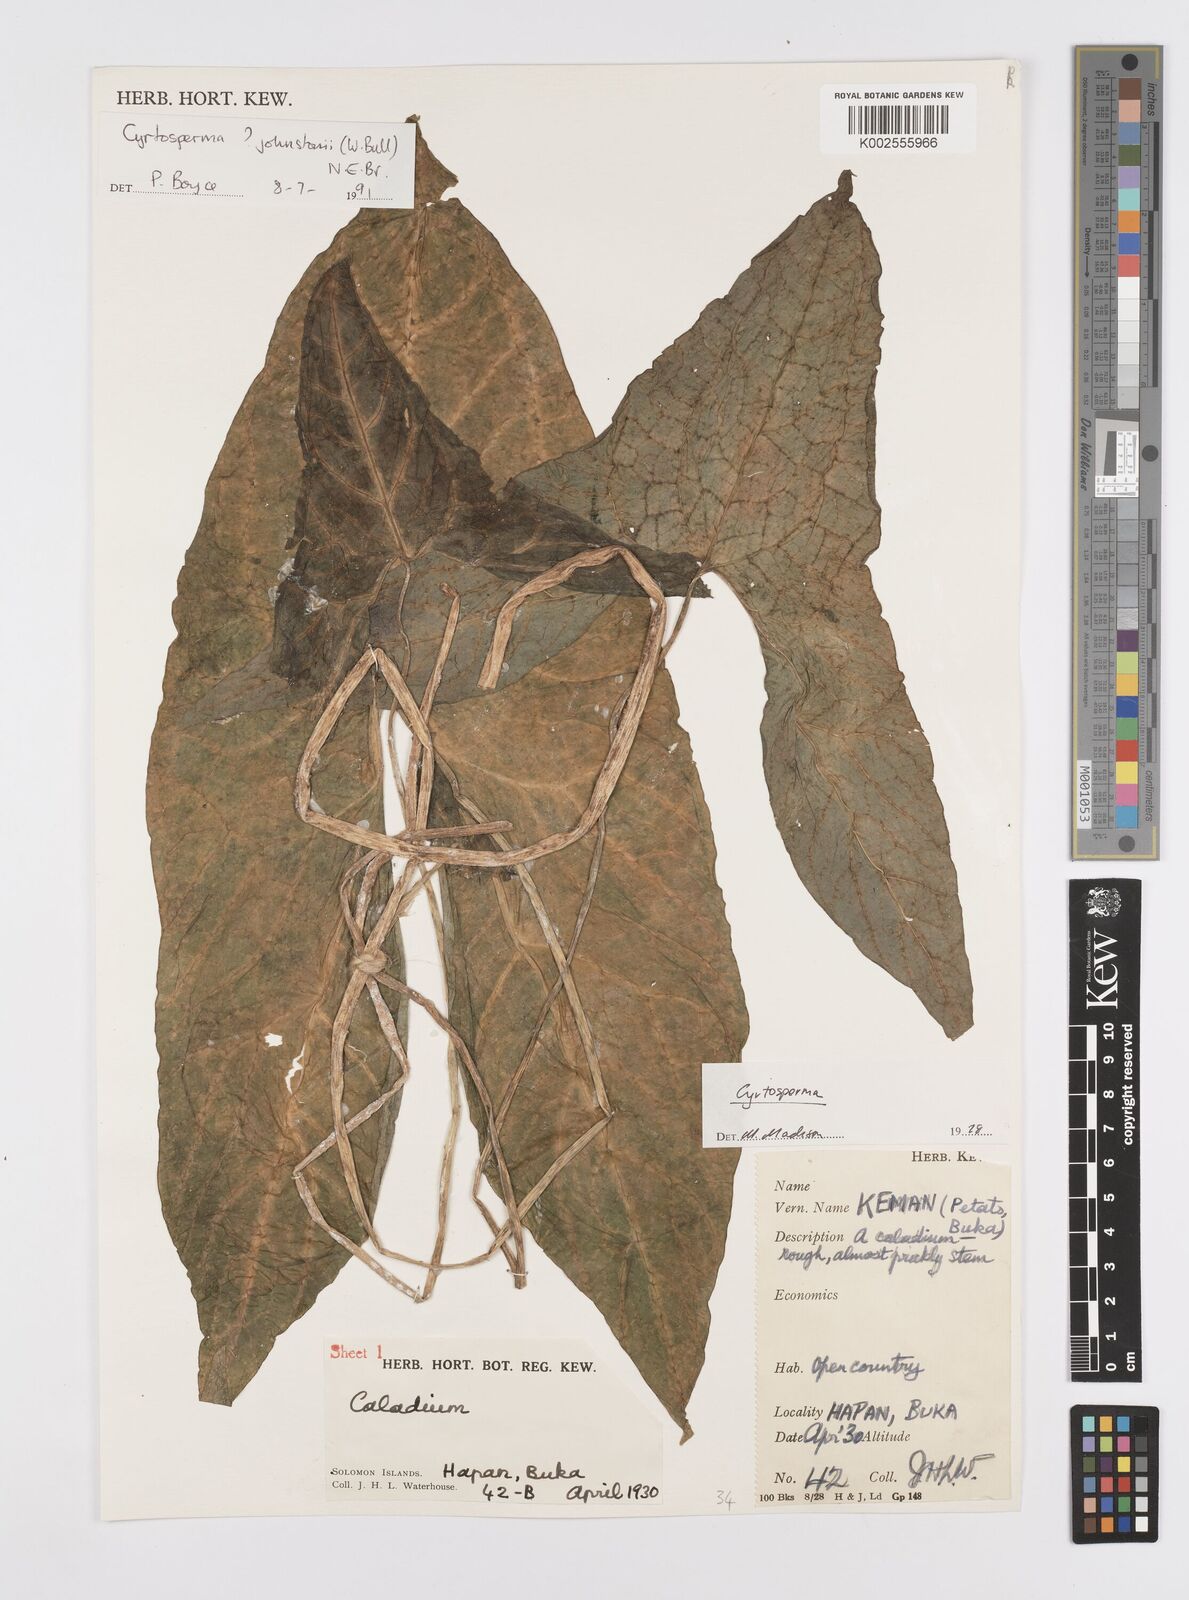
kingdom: Plantae
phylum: Tracheophyta
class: Liliopsida
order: Alismatales
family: Araceae
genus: Cyrtosperma
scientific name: Cyrtosperma johnstonii
